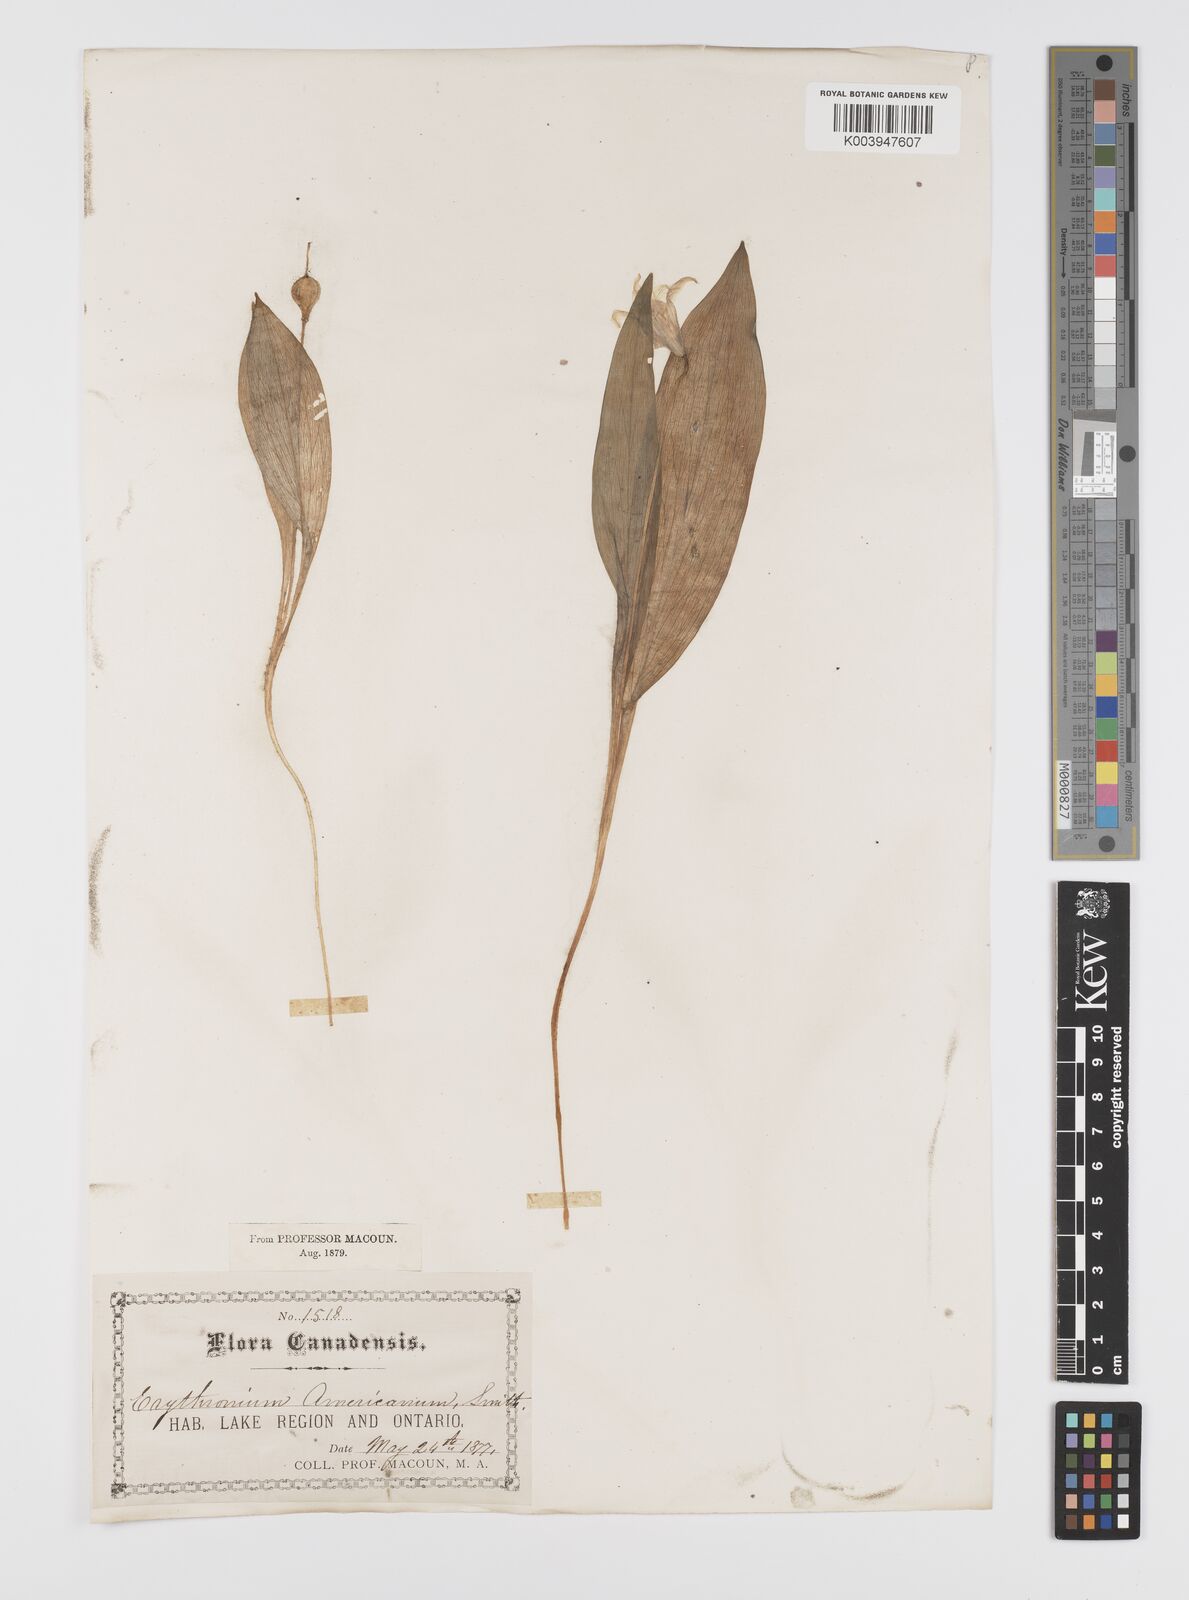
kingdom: Plantae
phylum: Tracheophyta
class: Liliopsida
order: Liliales
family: Liliaceae
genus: Erythronium
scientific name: Erythronium grandiflorum
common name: Avalanche-lily
